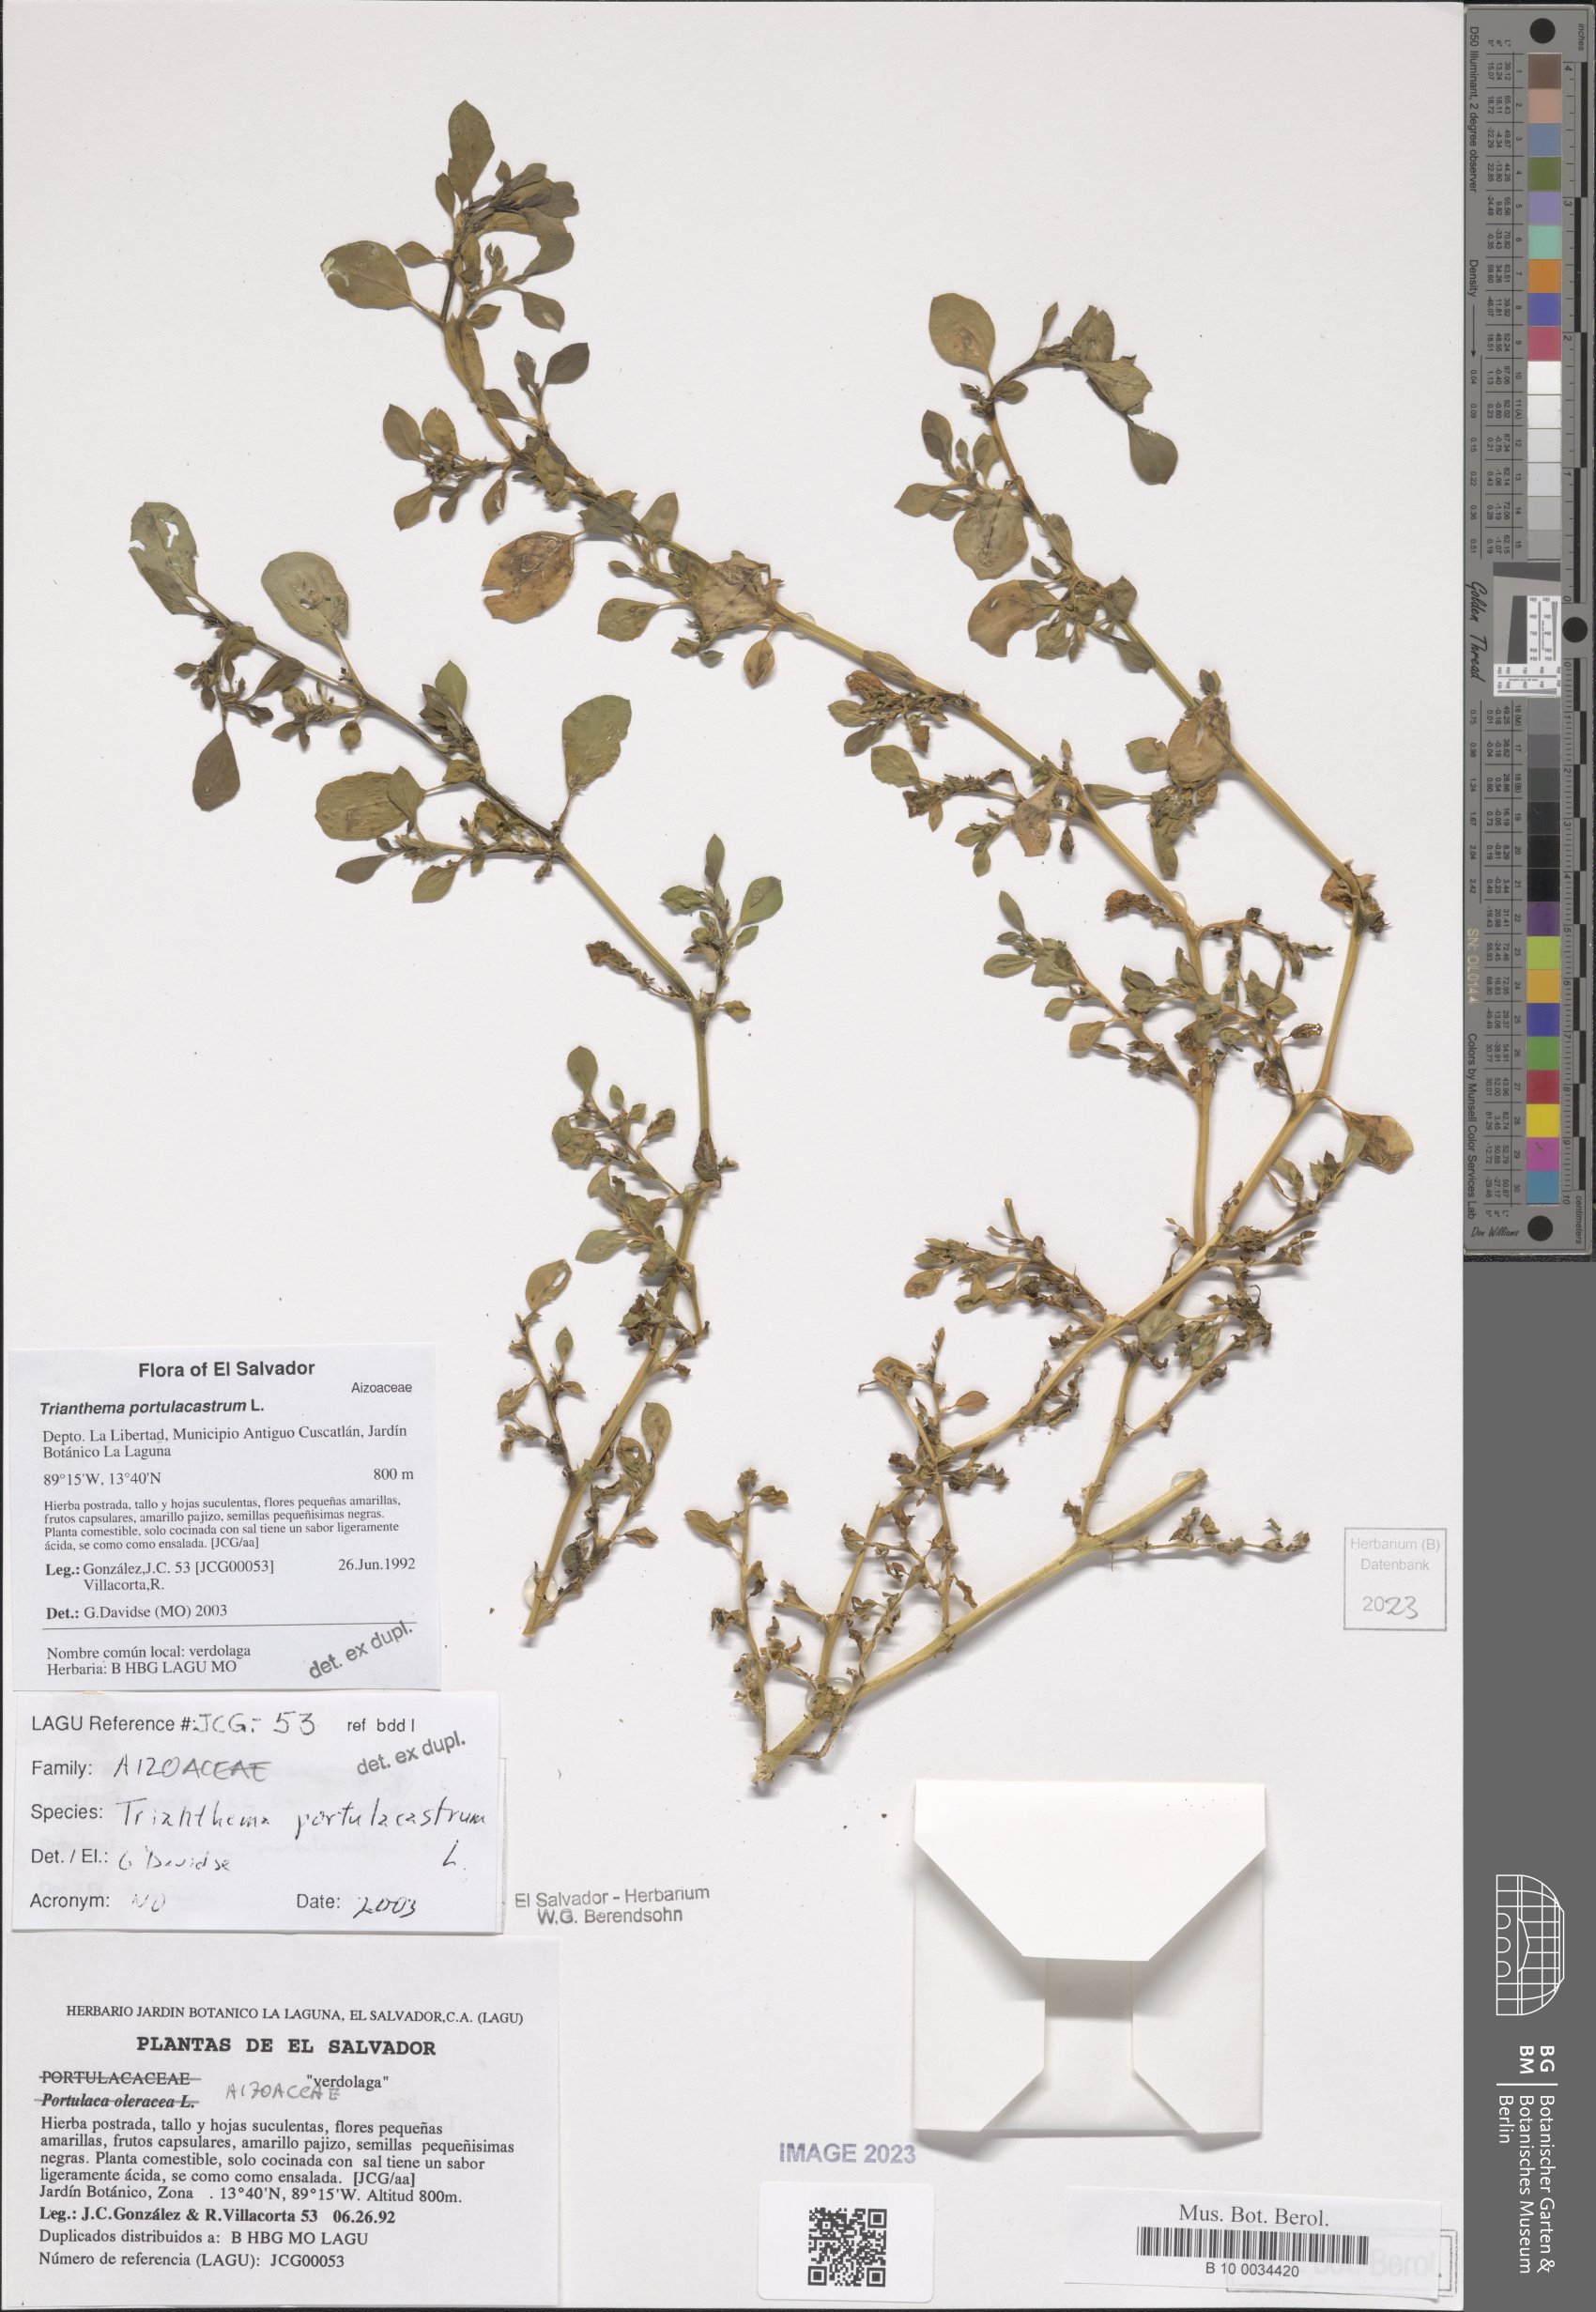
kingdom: Plantae
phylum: Tracheophyta
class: Magnoliopsida
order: Caryophyllales
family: Aizoaceae
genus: Trianthema
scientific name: Trianthema portulacastrum
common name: Desert horsepurslane
